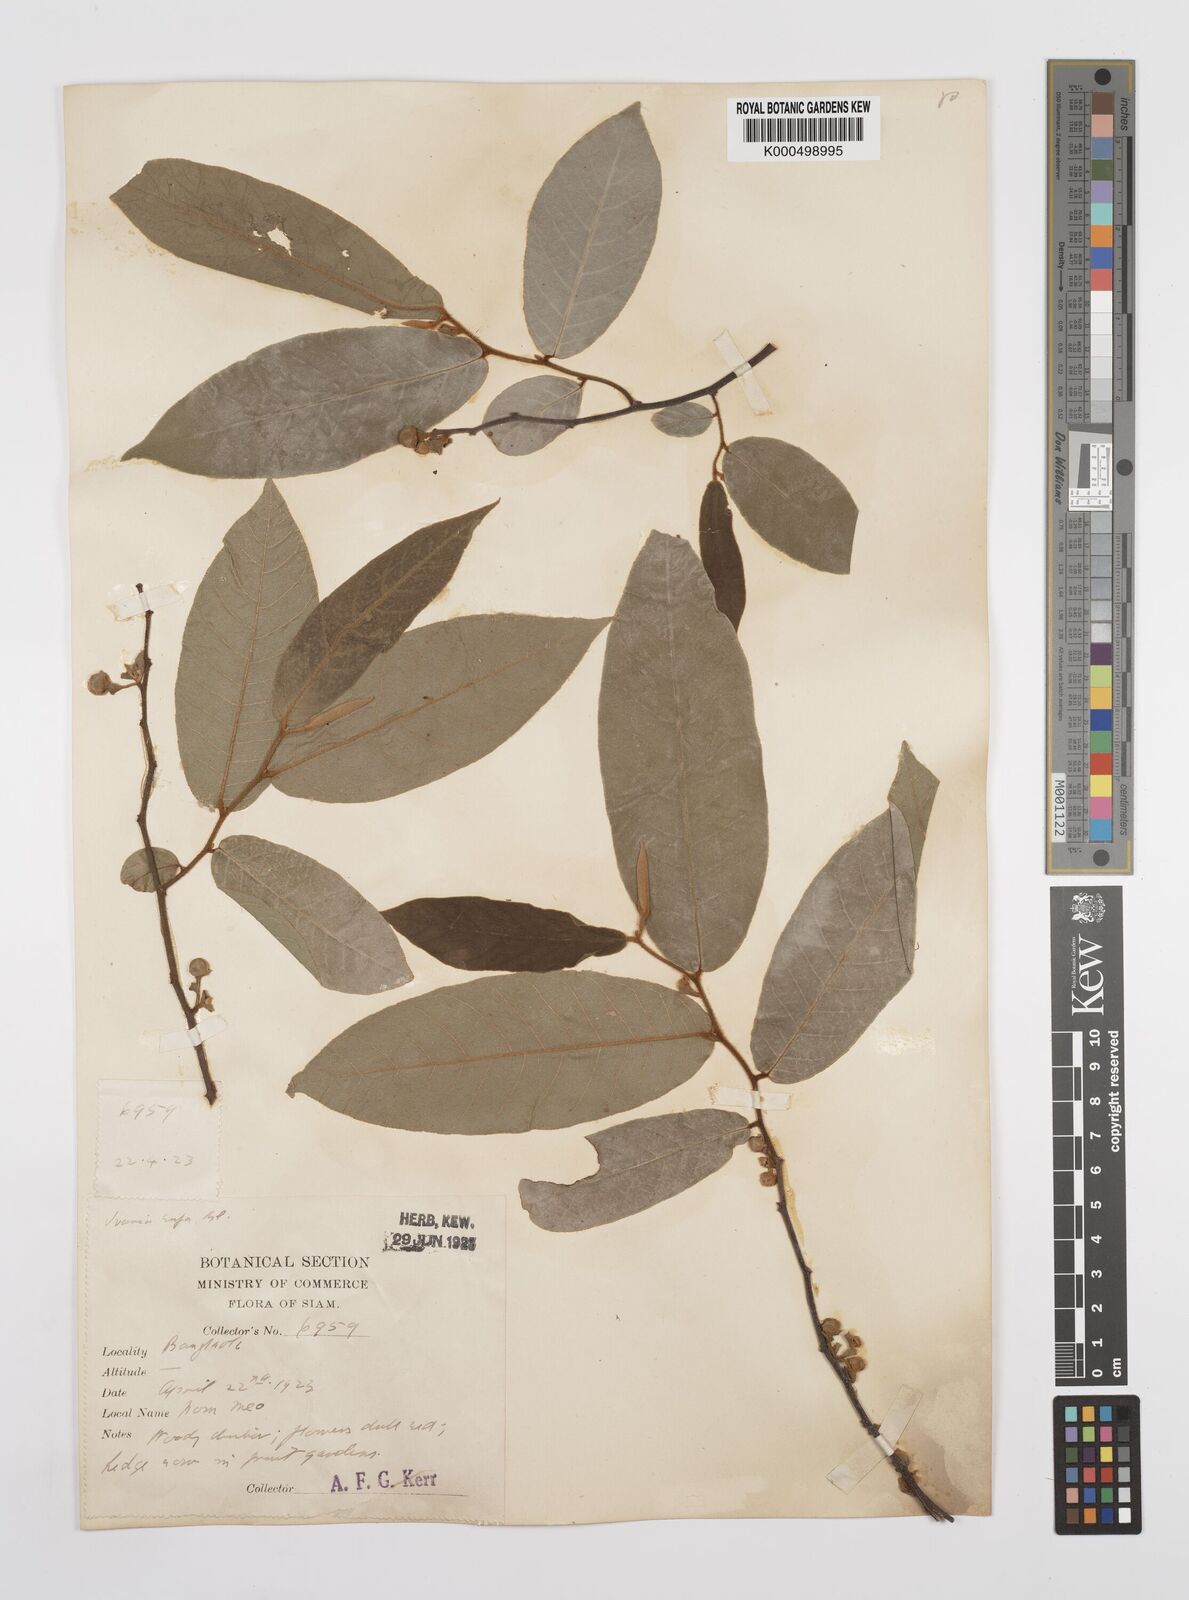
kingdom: Plantae
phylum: Tracheophyta
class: Magnoliopsida
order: Magnoliales
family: Annonaceae
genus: Uvaria
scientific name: Uvaria rufa
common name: Torres strait scrambler
